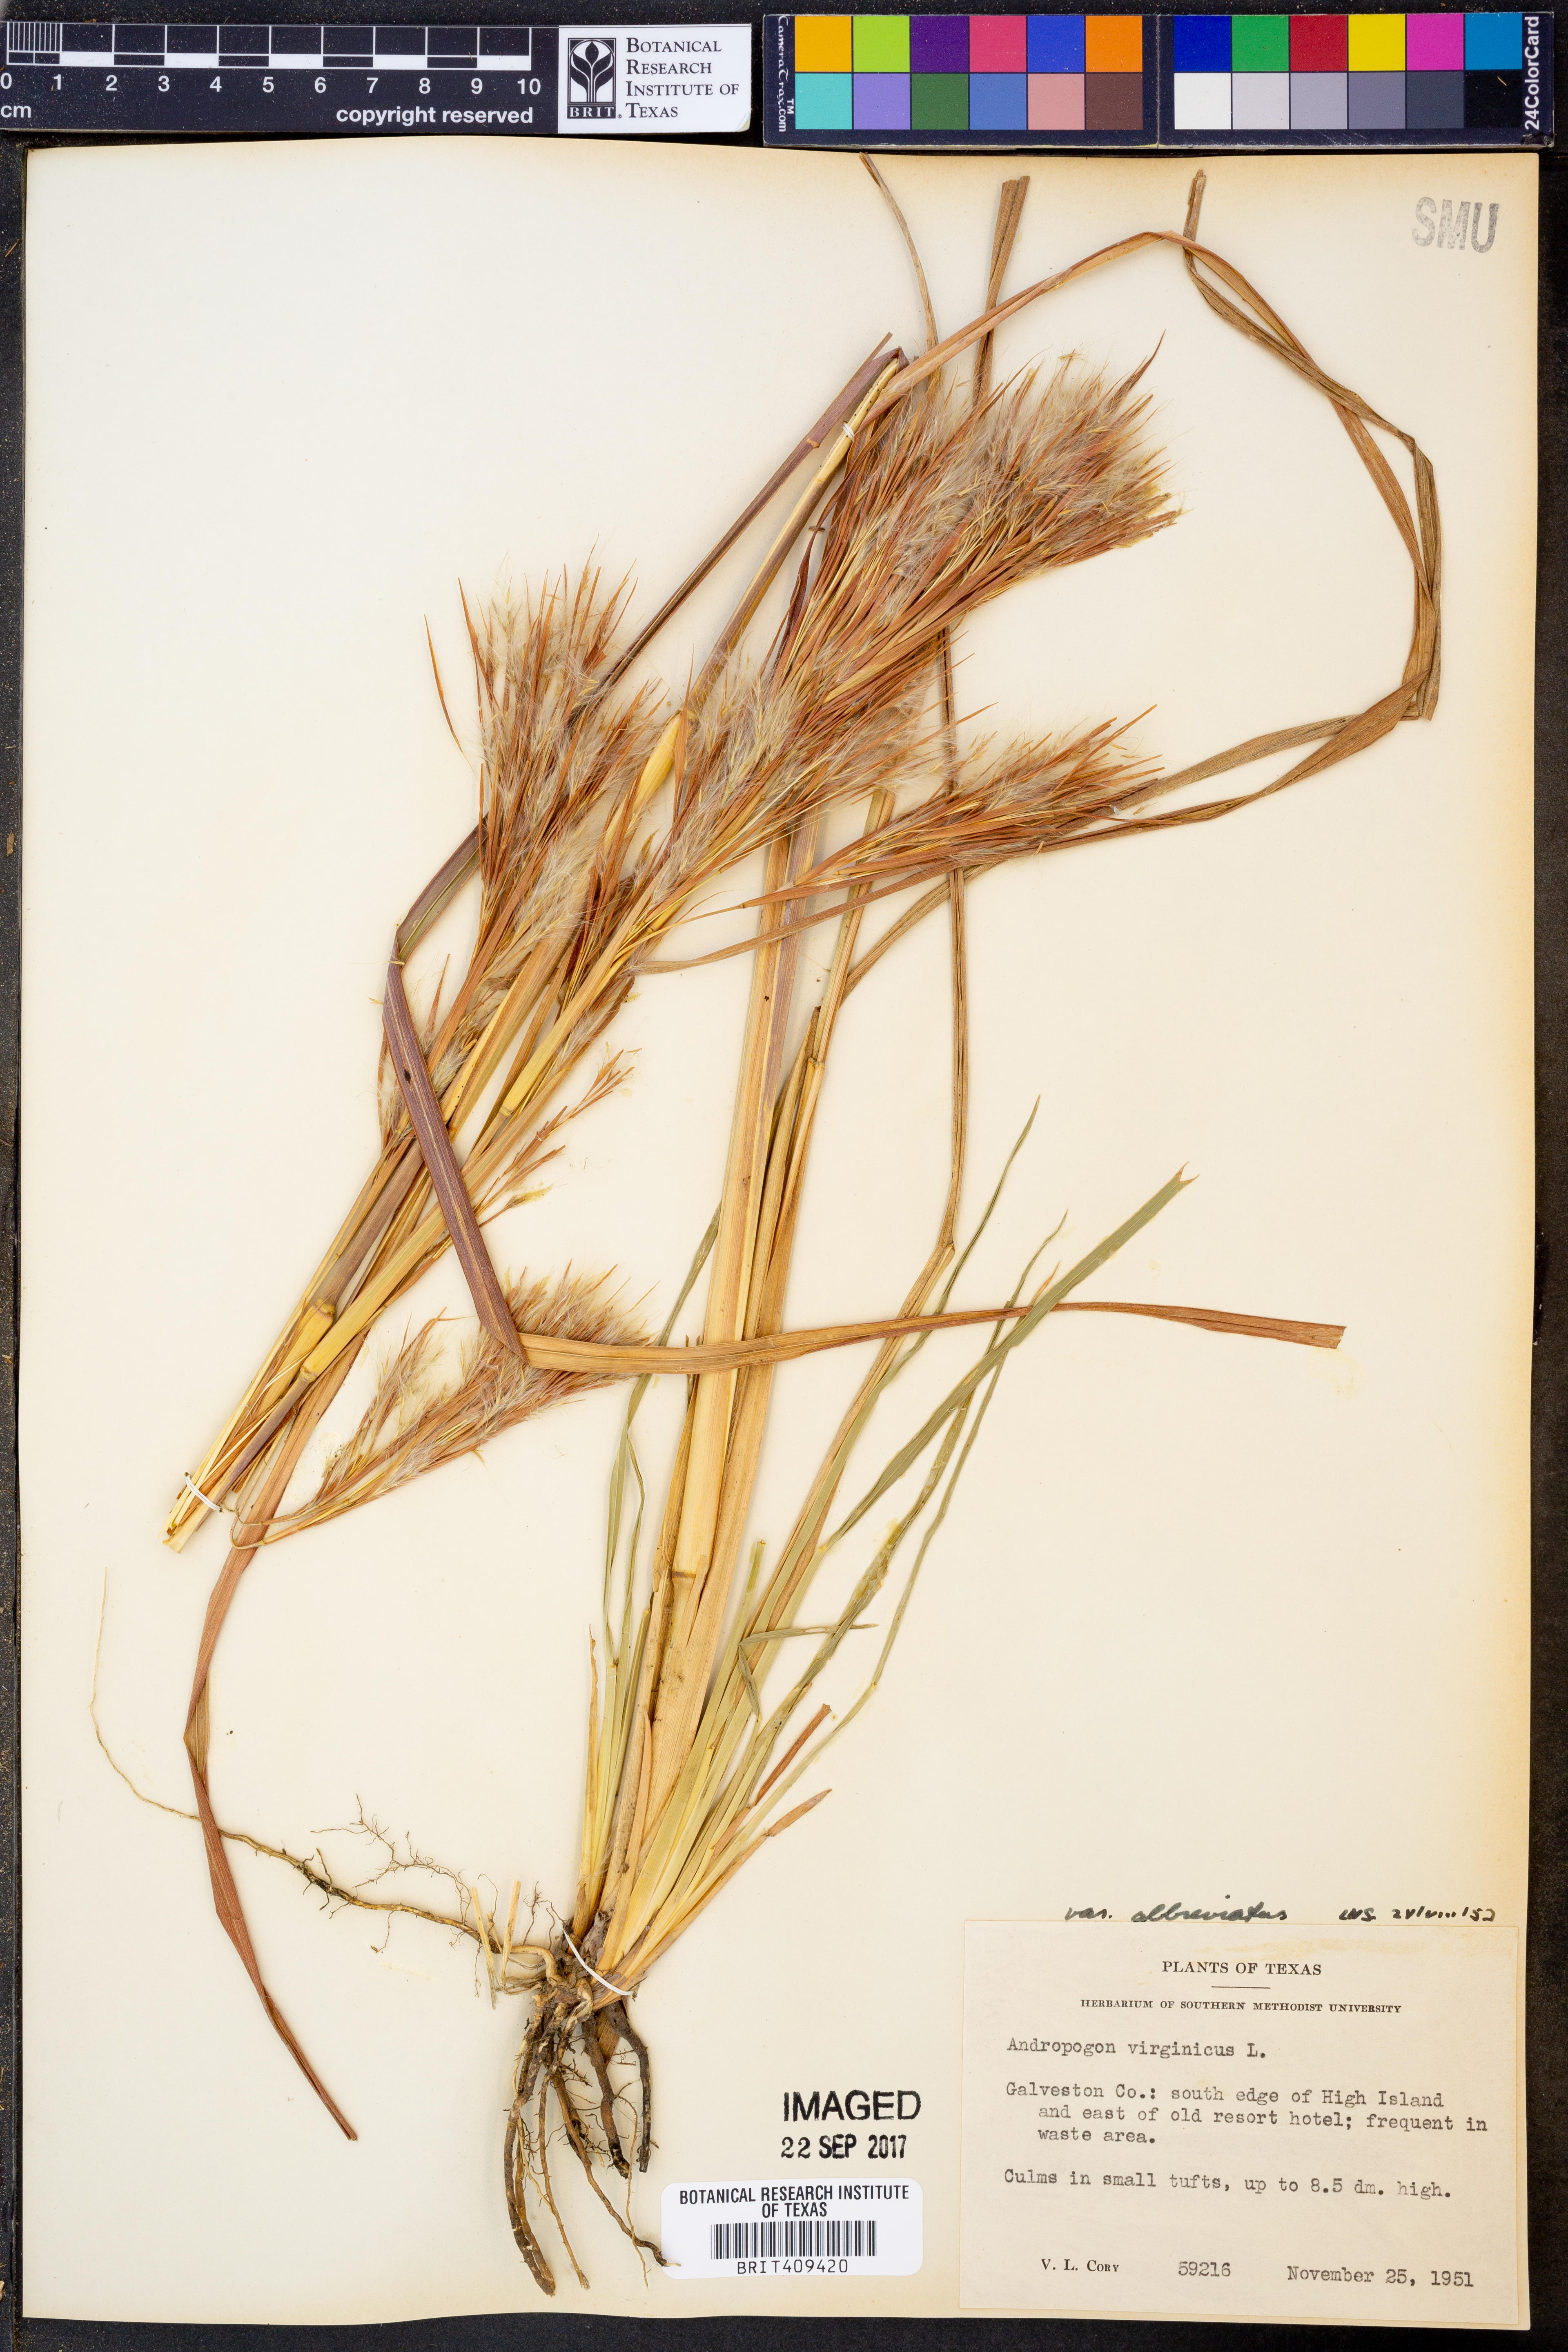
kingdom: Plantae
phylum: Tracheophyta
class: Liliopsida
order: Poales
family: Poaceae
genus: Andropogon
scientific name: Andropogon virginicus
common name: Broomsedge bluestem
